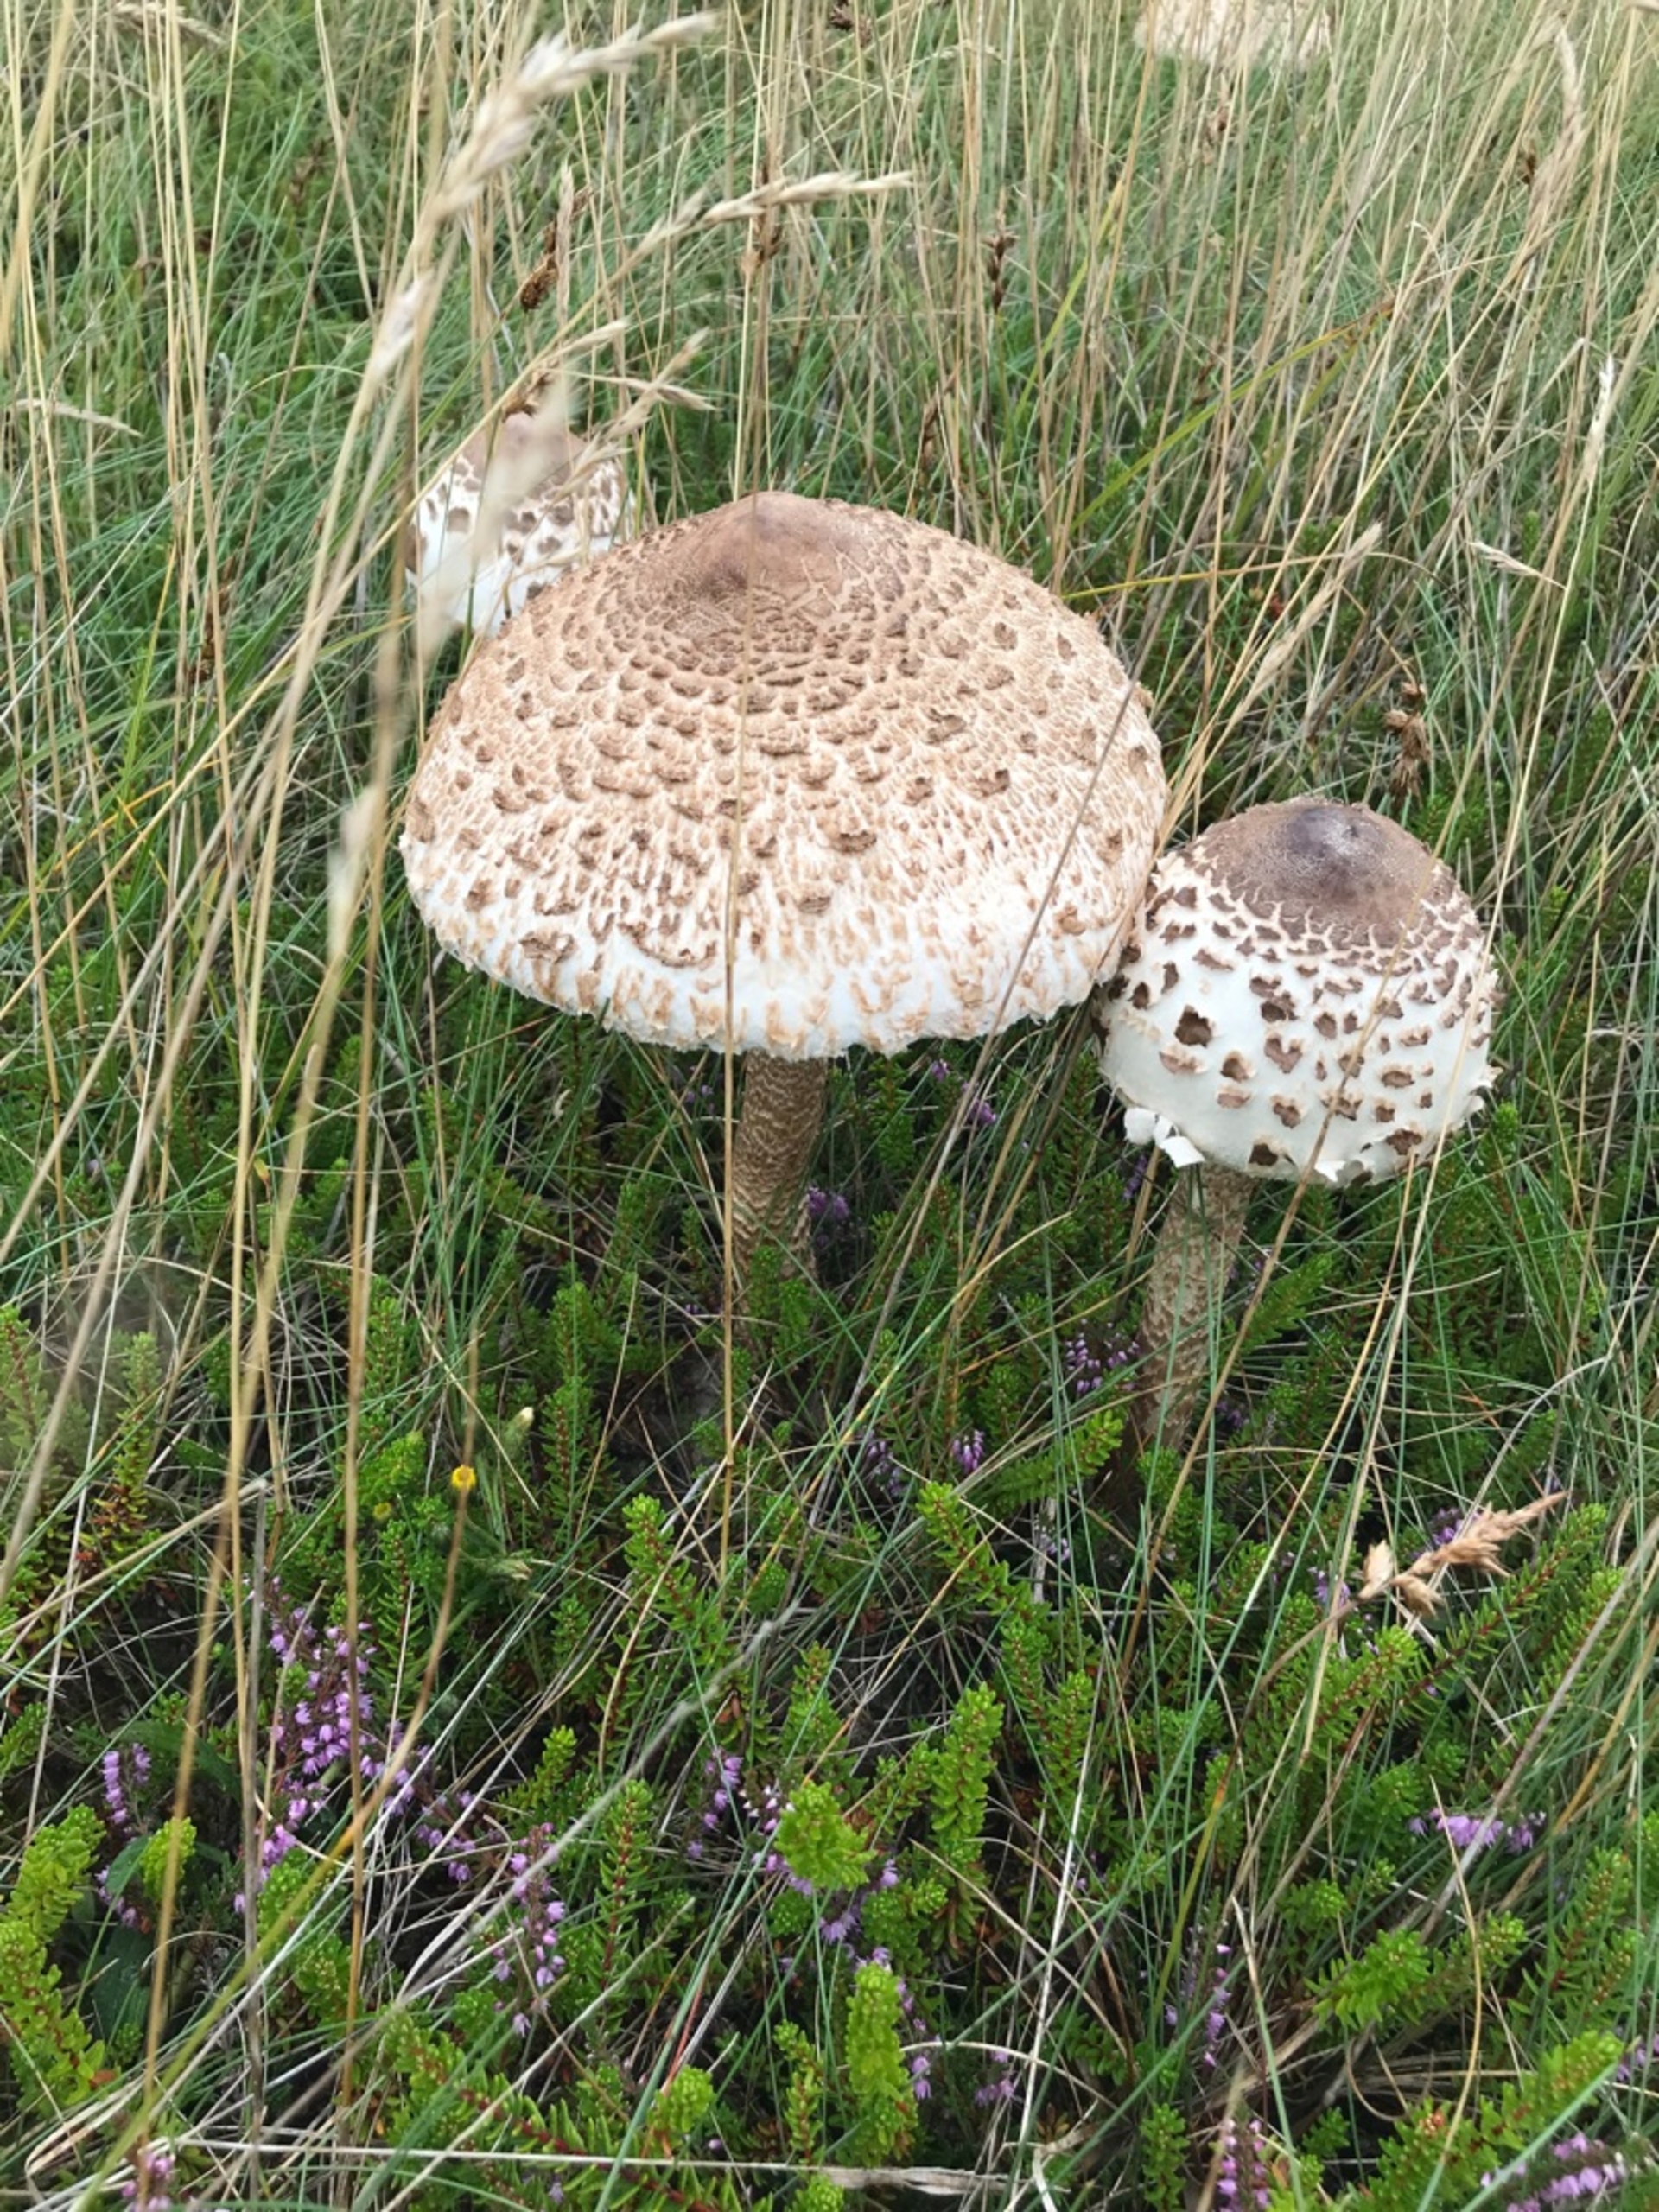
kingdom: Fungi
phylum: Basidiomycota
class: Agaricomycetes
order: Agaricales
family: Agaricaceae
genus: Macrolepiota
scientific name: Macrolepiota procera
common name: Stor kæmpeparasolhat
